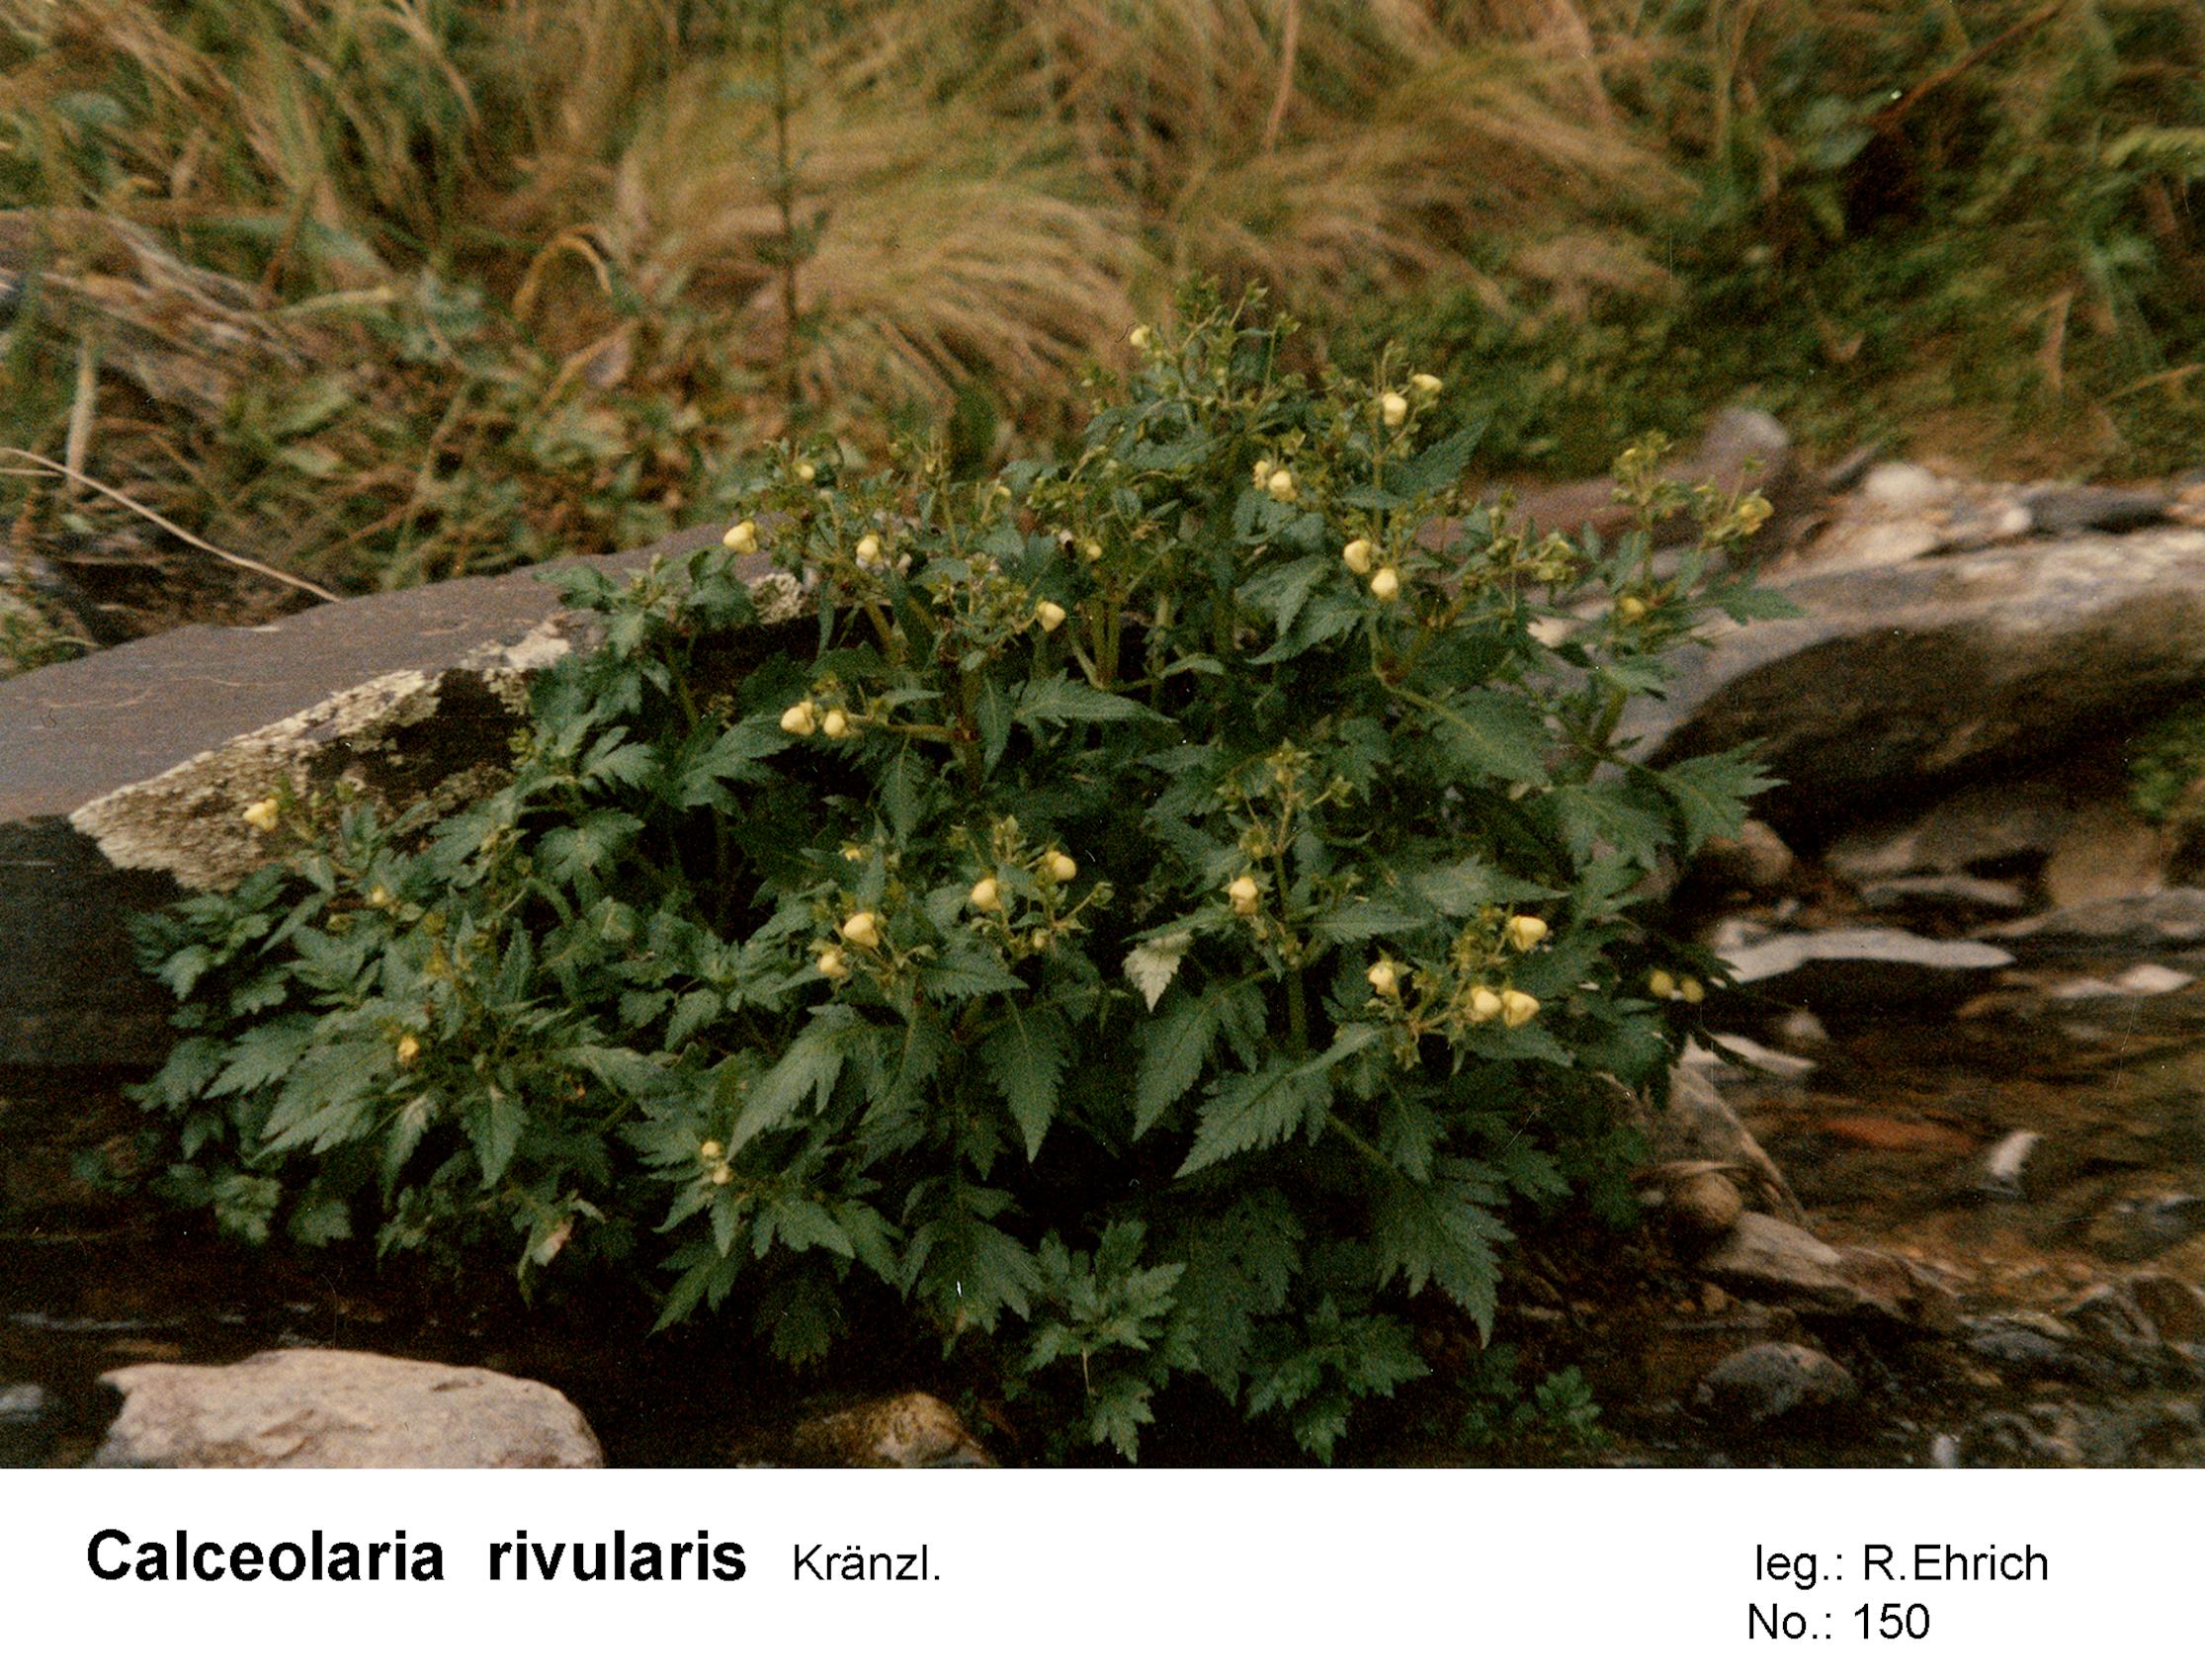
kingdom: Plantae
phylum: Tracheophyta
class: Magnoliopsida
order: Lamiales
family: Calceolariaceae
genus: Calceolaria
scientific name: Calceolaria rivularis
